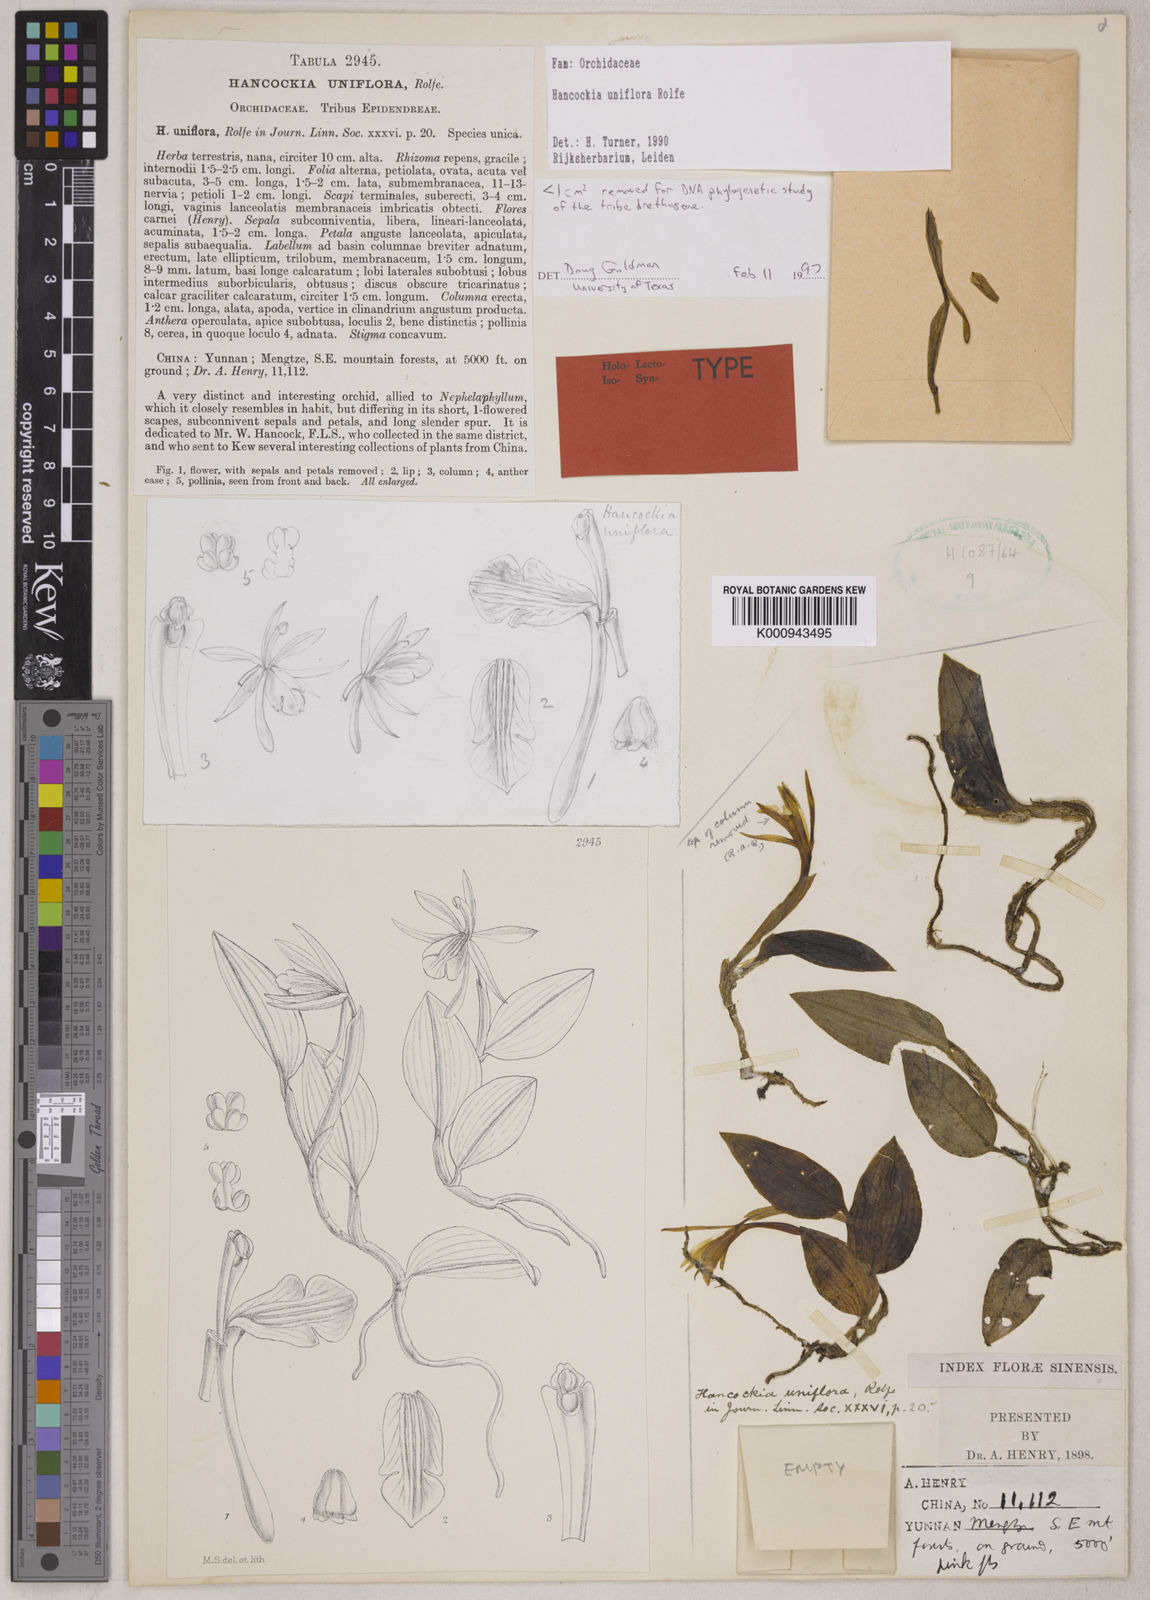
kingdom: Plantae
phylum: Tracheophyta
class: Liliopsida
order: Asparagales
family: Orchidaceae
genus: Hancockia
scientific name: Hancockia uniflora
